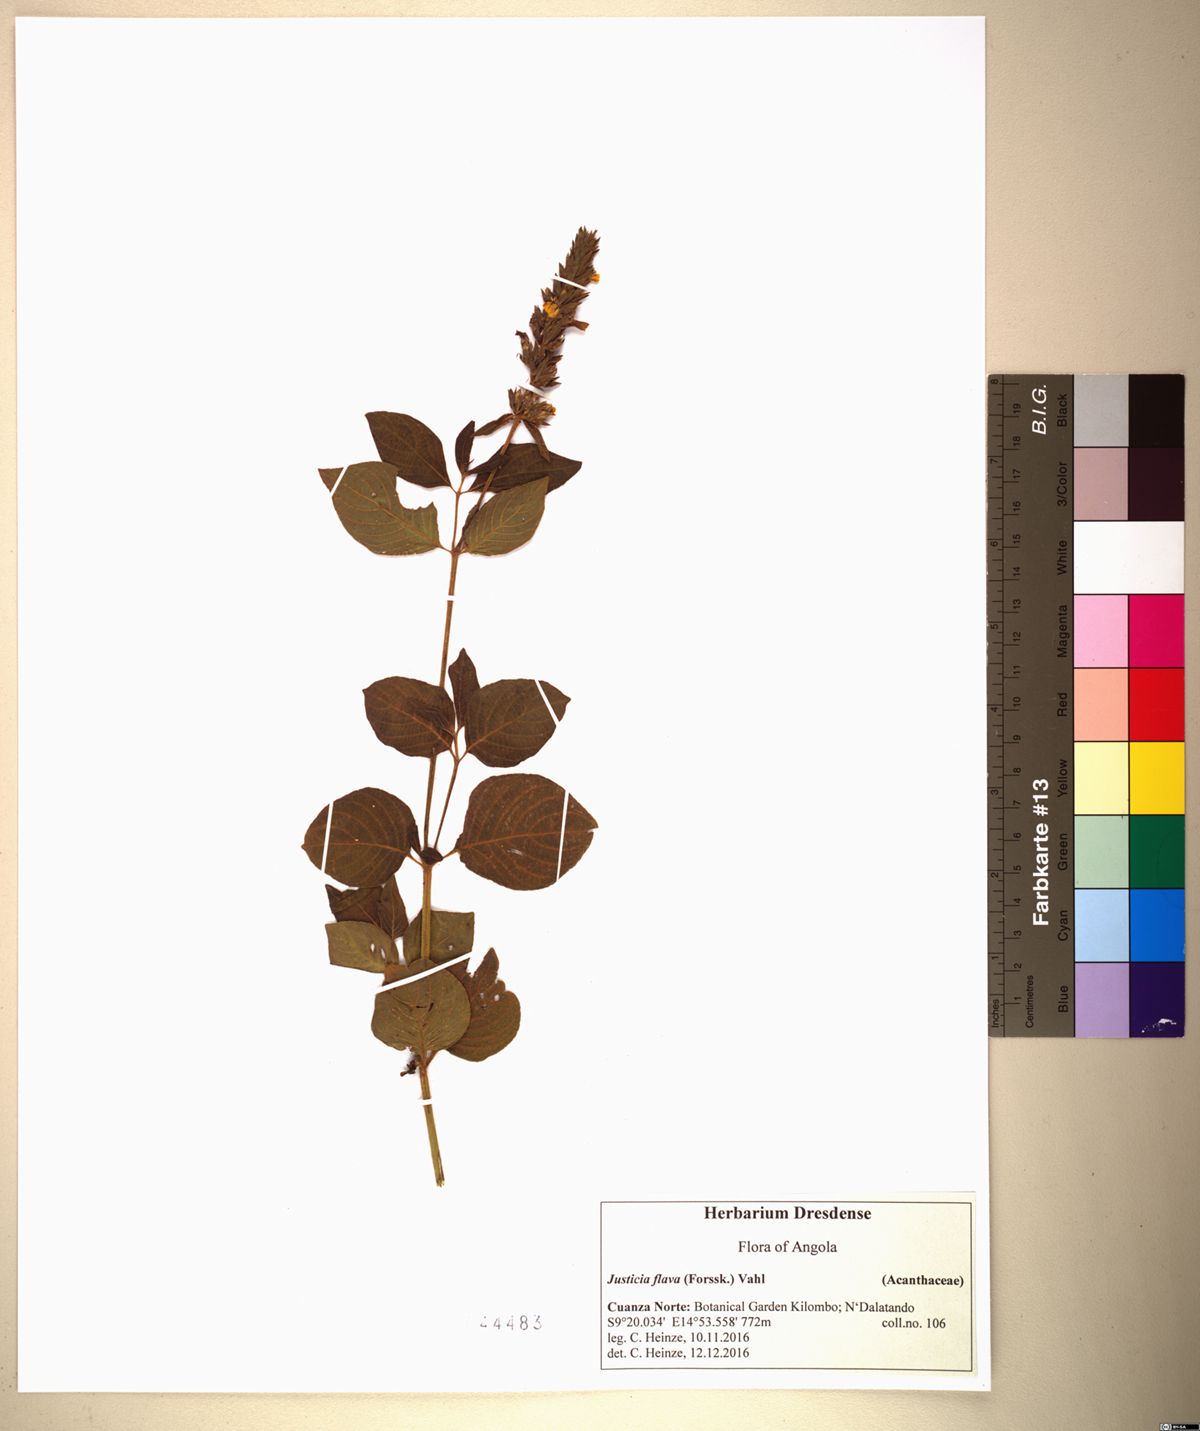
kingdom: Plantae
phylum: Tracheophyta
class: Magnoliopsida
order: Lamiales
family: Acanthaceae
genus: Justicia
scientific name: Justicia flava
